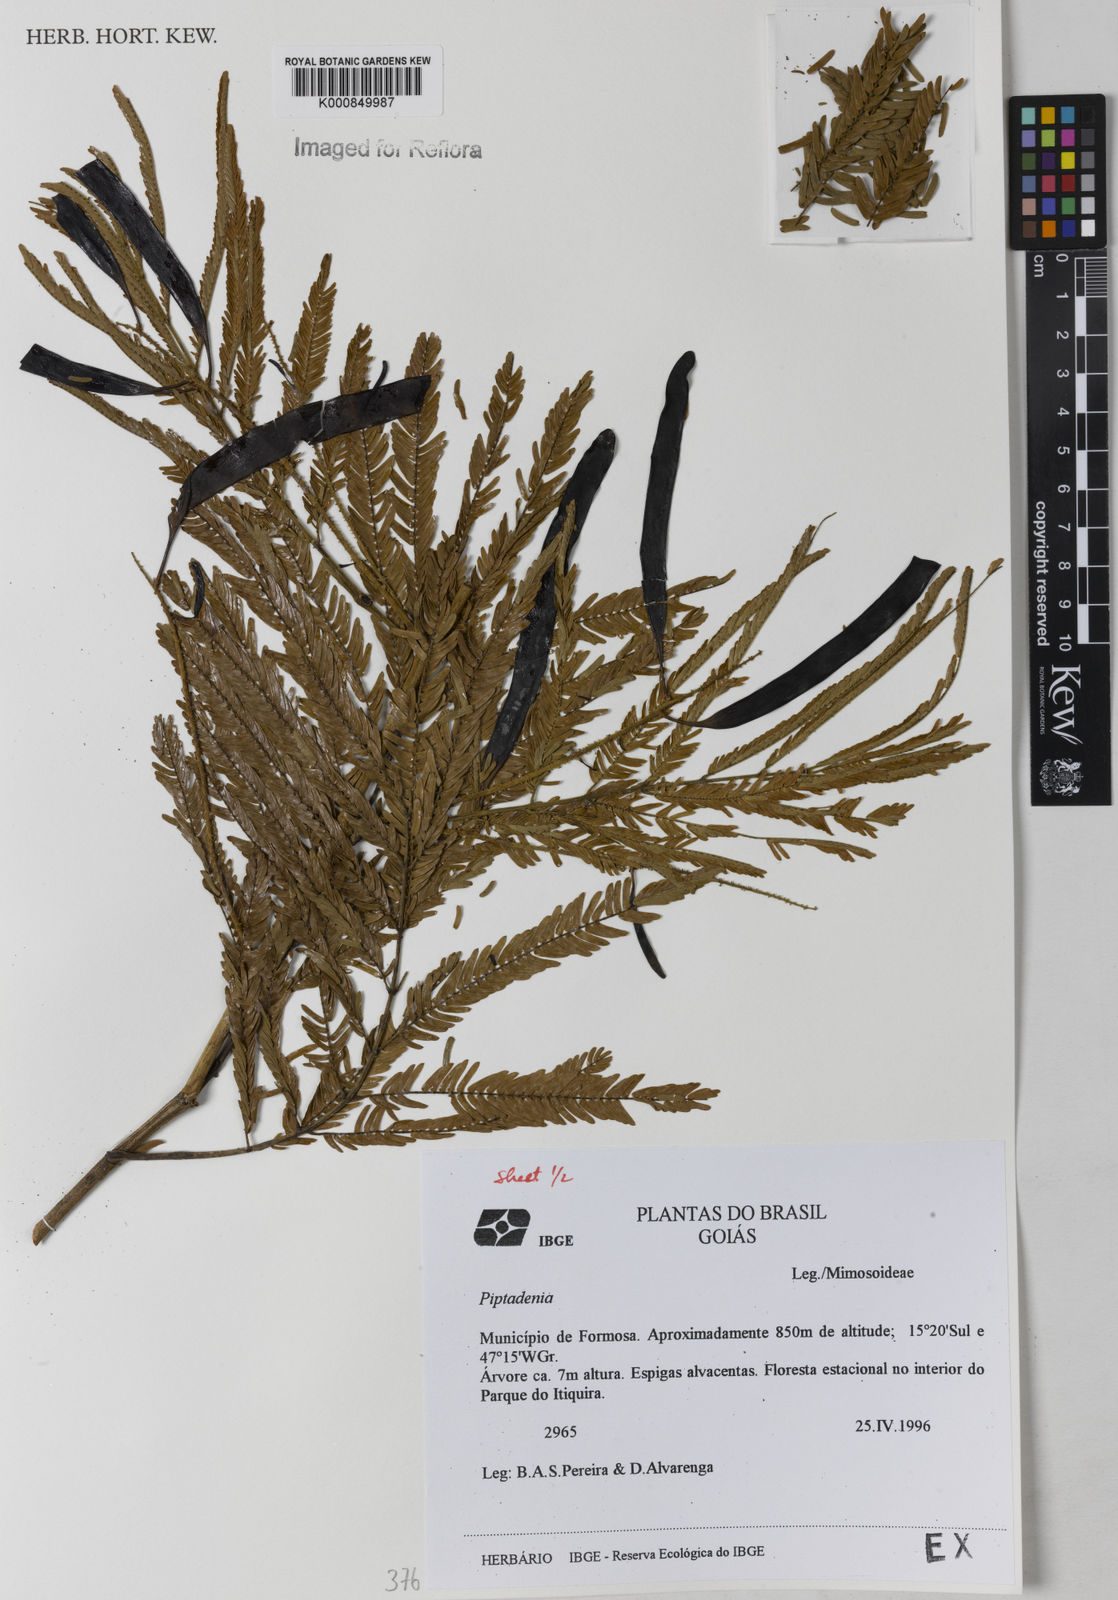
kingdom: Plantae
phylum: Tracheophyta
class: Magnoliopsida
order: Fabales
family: Fabaceae
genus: Piptadenia
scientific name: Piptadenia
